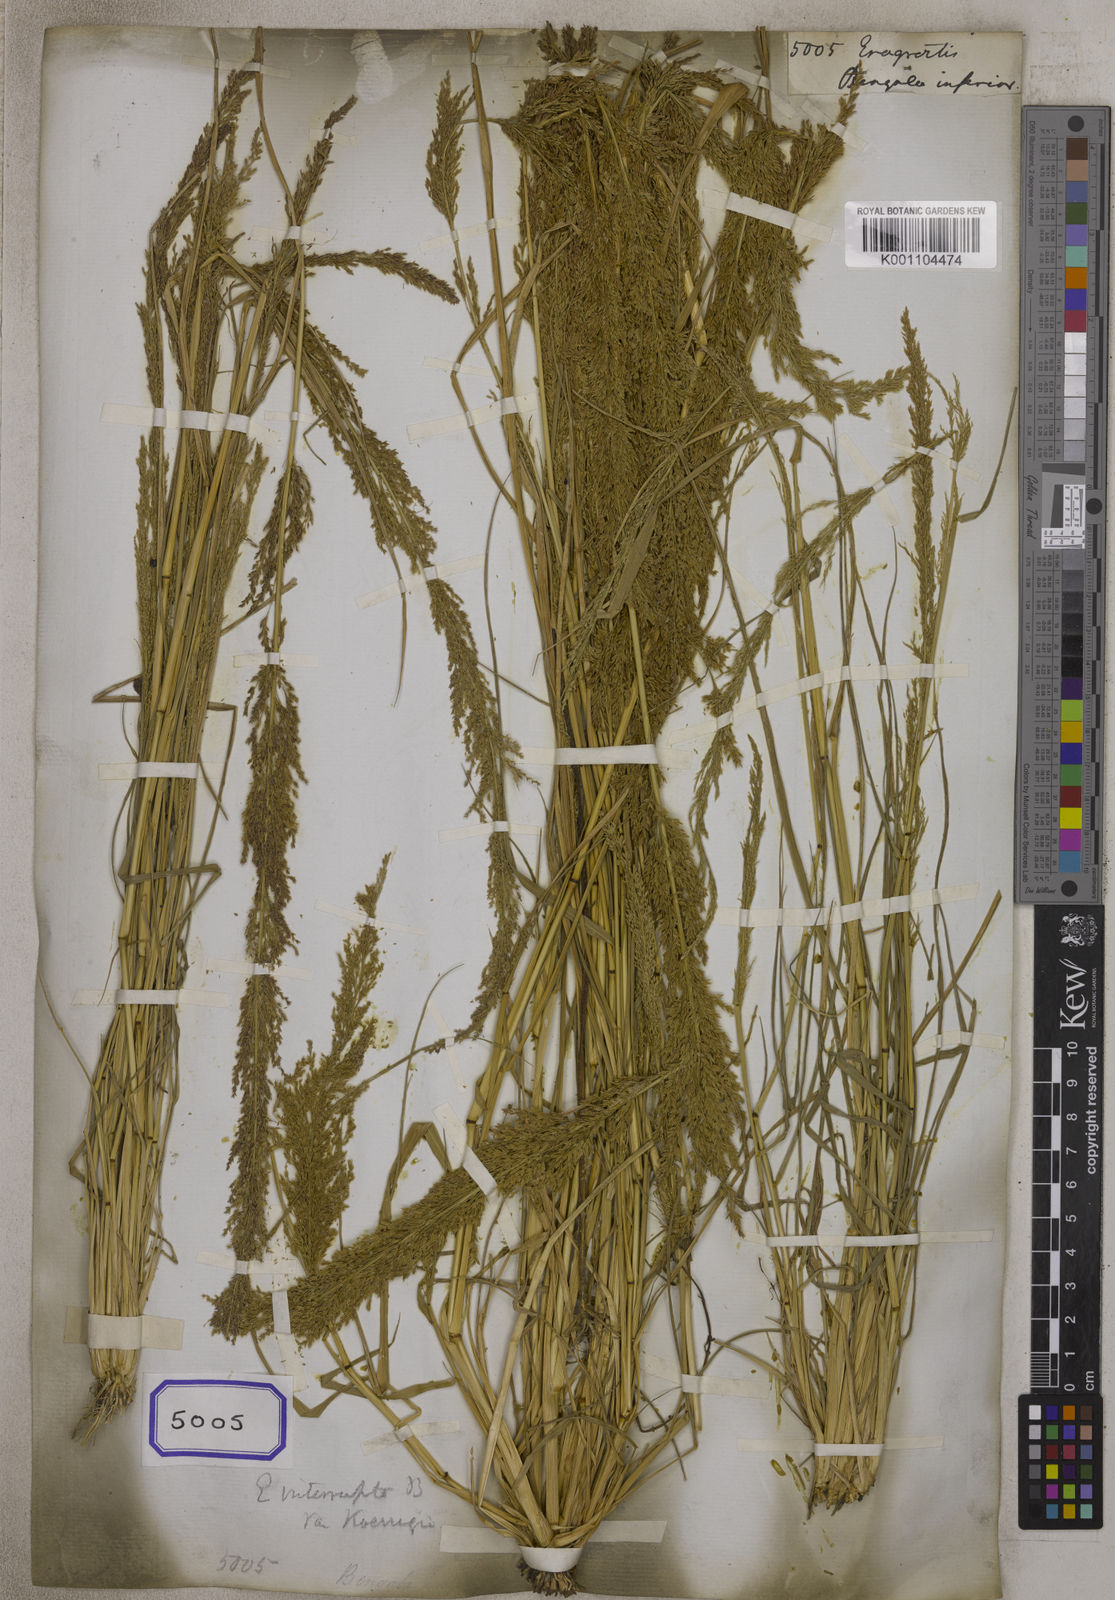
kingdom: Plantae
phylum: Tracheophyta
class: Liliopsida
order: Poales
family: Poaceae
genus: Eragrostis
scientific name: Eragrostis
